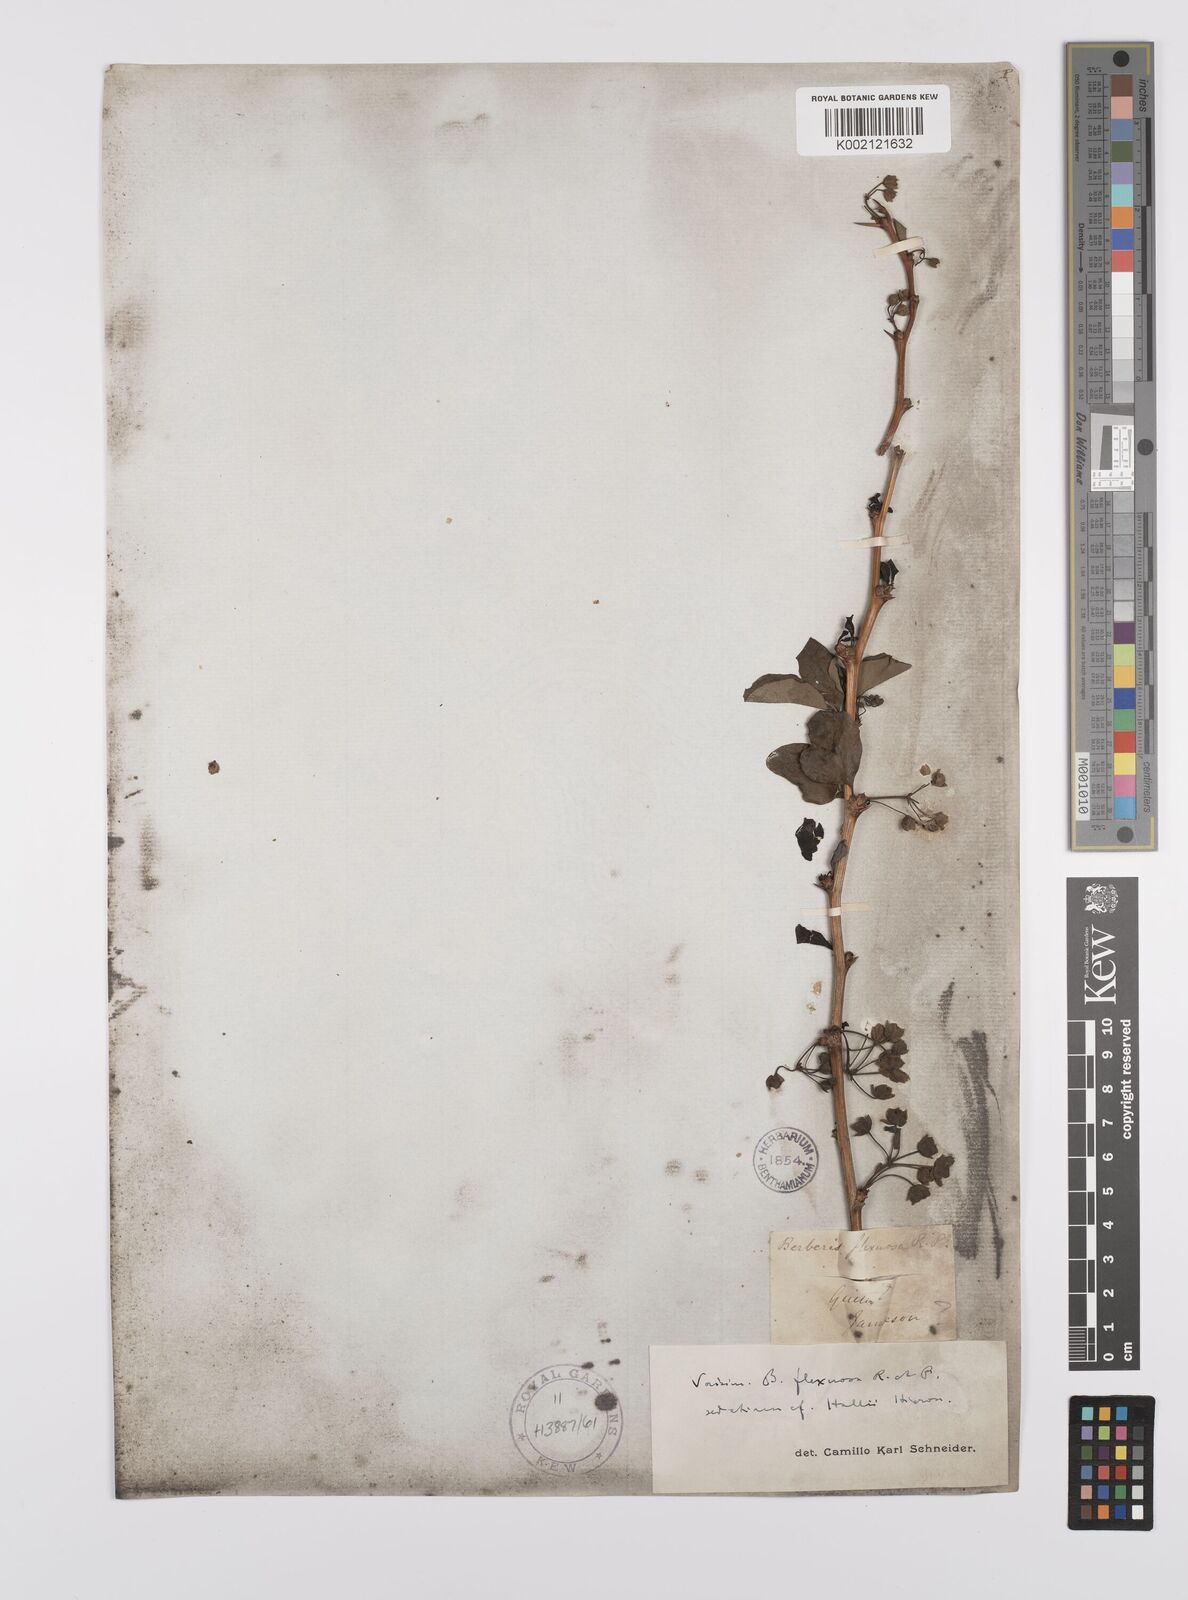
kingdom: Plantae
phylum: Tracheophyta
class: Magnoliopsida
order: Ranunculales
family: Berberidaceae
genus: Berberis
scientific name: Berberis hallii
